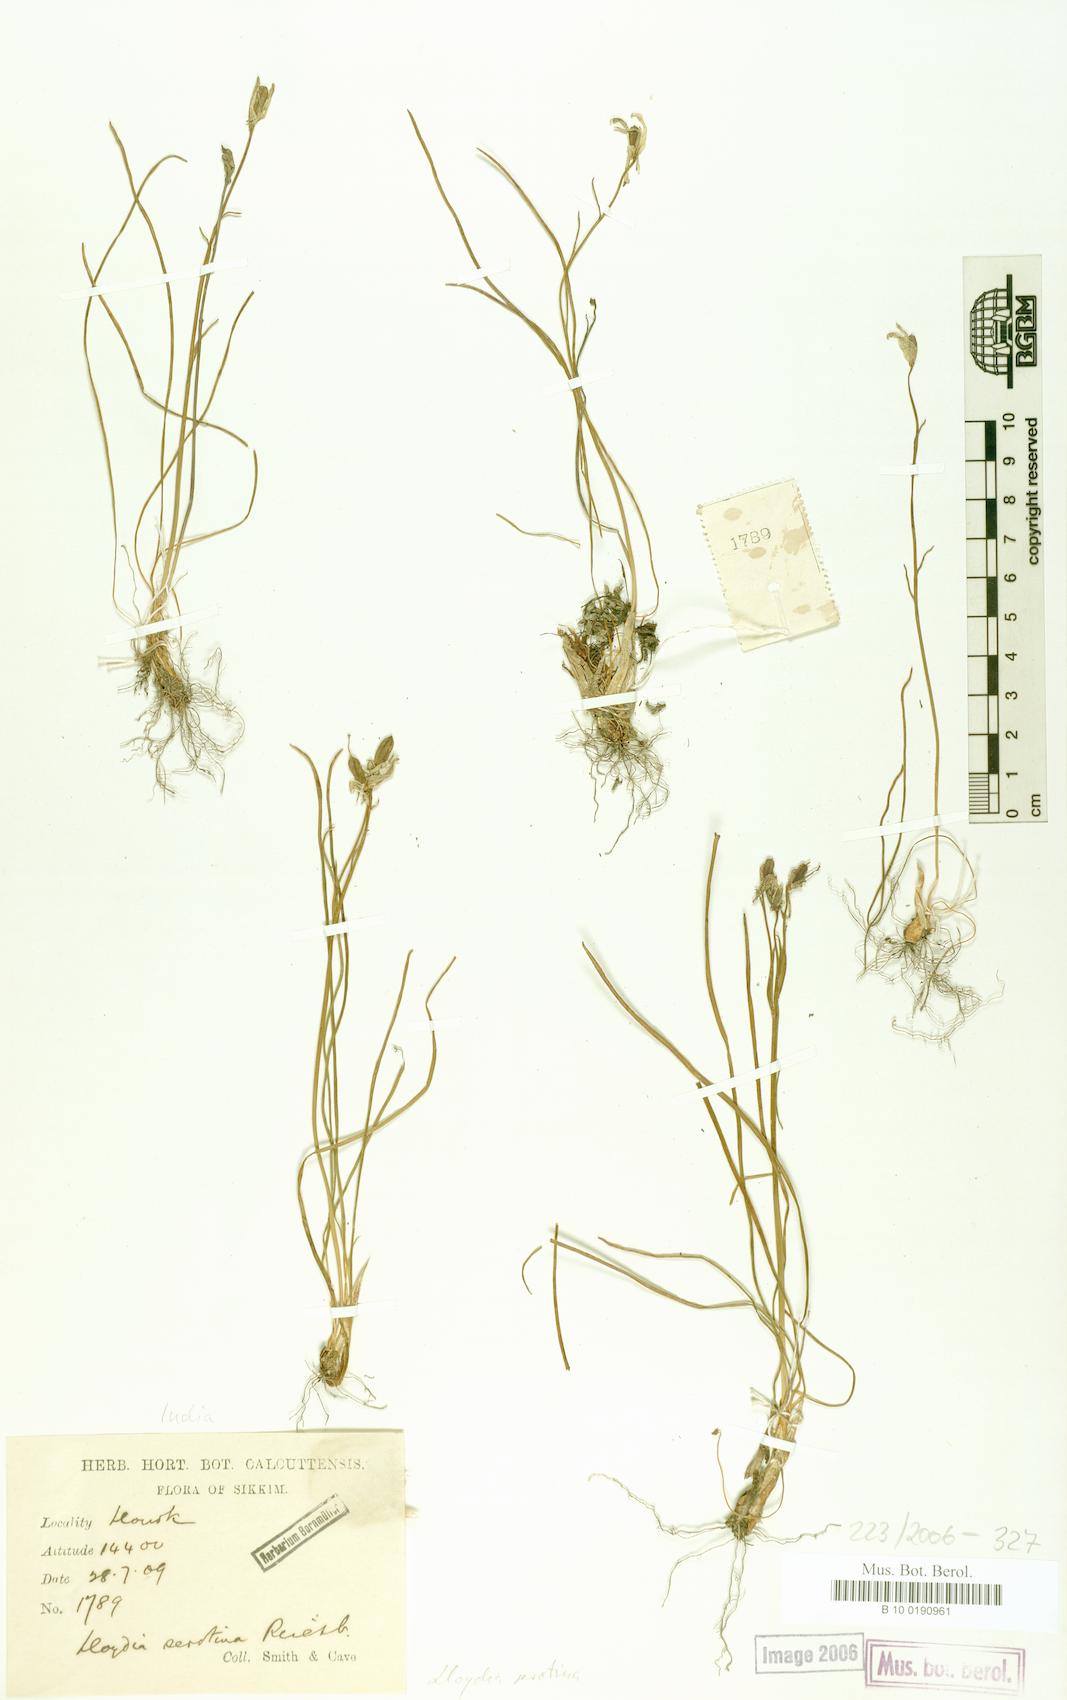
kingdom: Plantae
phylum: Tracheophyta
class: Liliopsida
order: Liliales
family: Liliaceae
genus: Gagea
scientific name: Gagea serotina
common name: Snowdon lily
